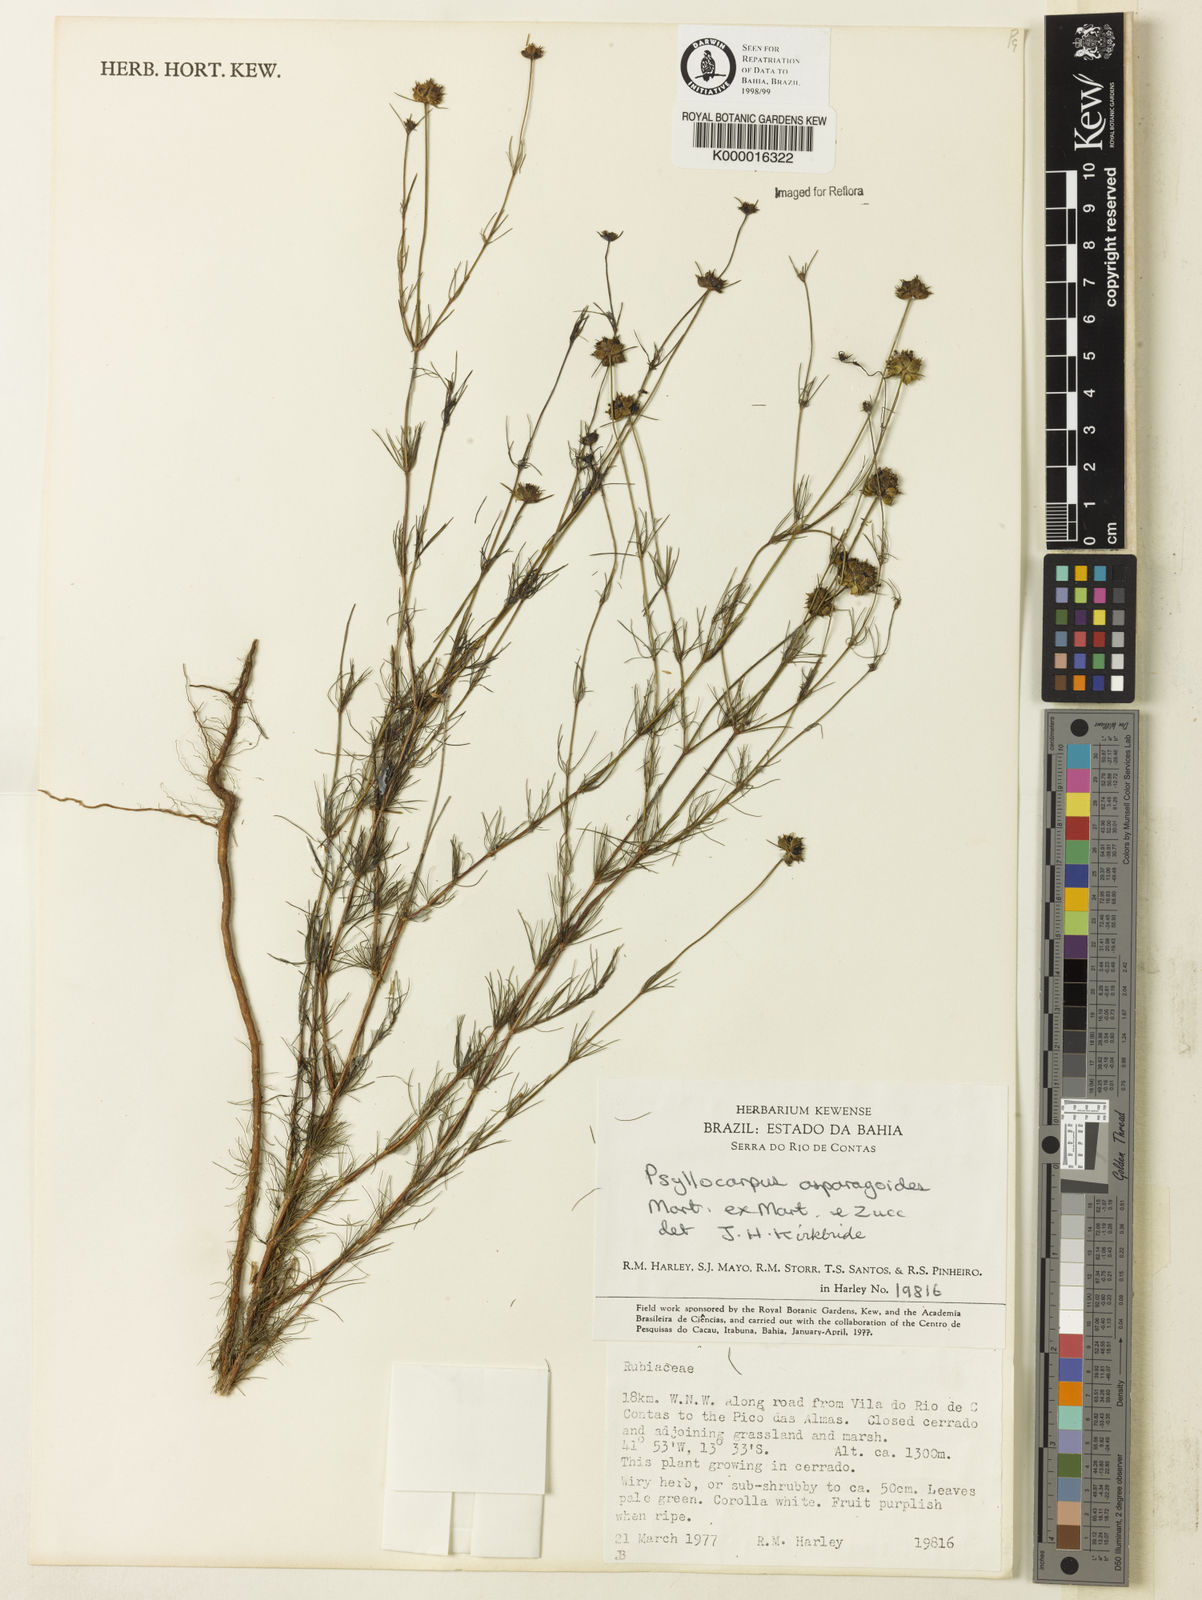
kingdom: Plantae
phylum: Tracheophyta
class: Magnoliopsida
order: Gentianales
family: Rubiaceae
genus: Psyllocarpus
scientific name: Psyllocarpus asparagoides
